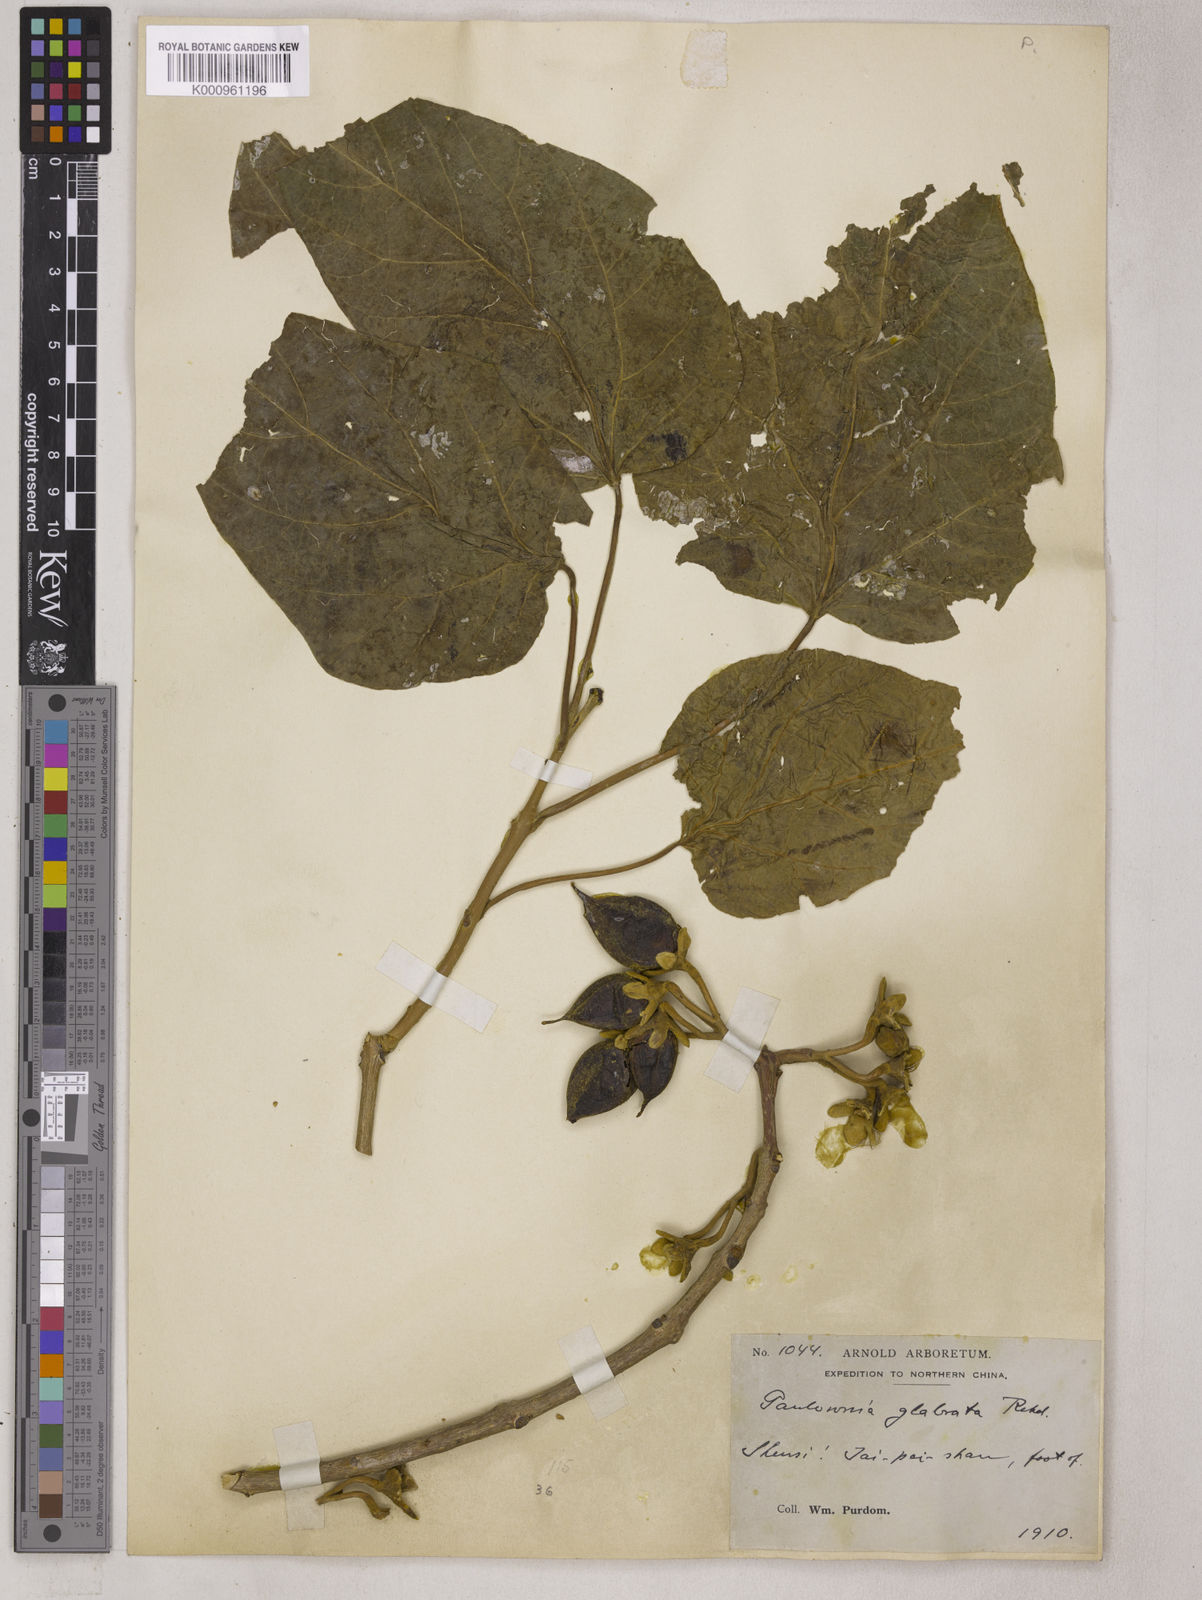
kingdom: Plantae
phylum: Tracheophyta
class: Magnoliopsida
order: Lamiales
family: Paulowniaceae
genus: Paulownia
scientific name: Paulownia tomentosa
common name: Foxglove-tree
